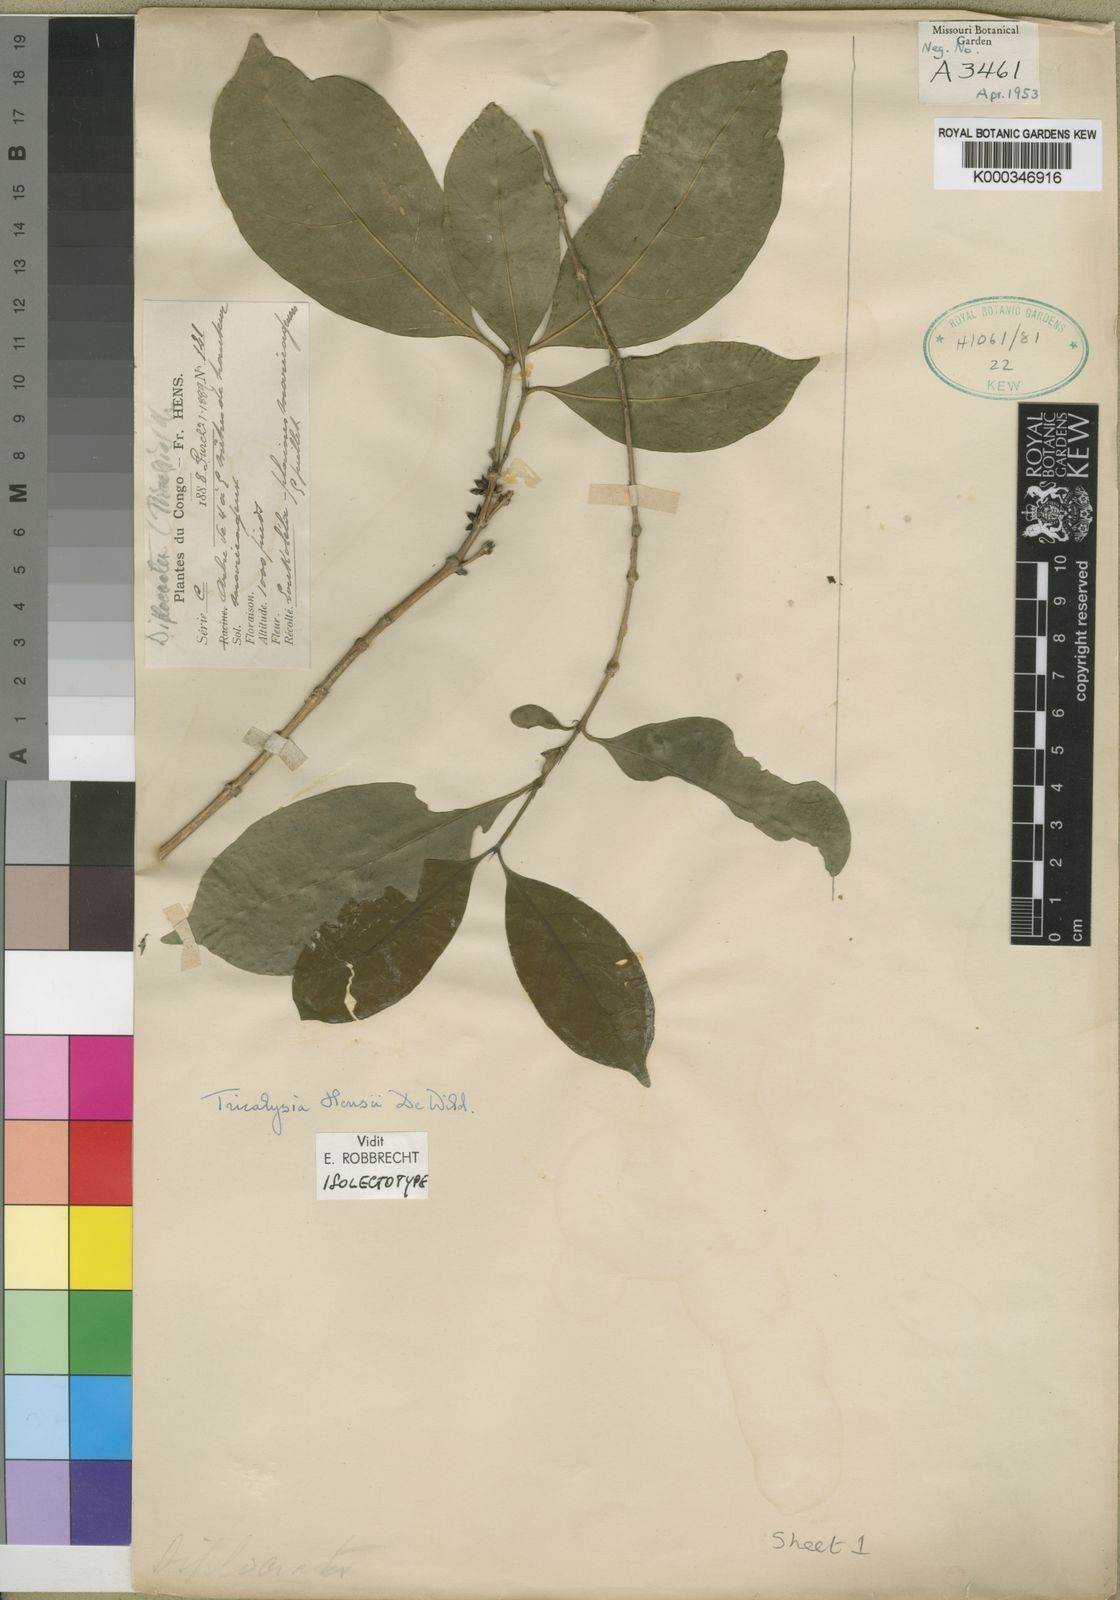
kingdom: Plantae
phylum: Tracheophyta
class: Magnoliopsida
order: Gentianales
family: Rubiaceae
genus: Tricalysia
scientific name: Tricalysia hensii
